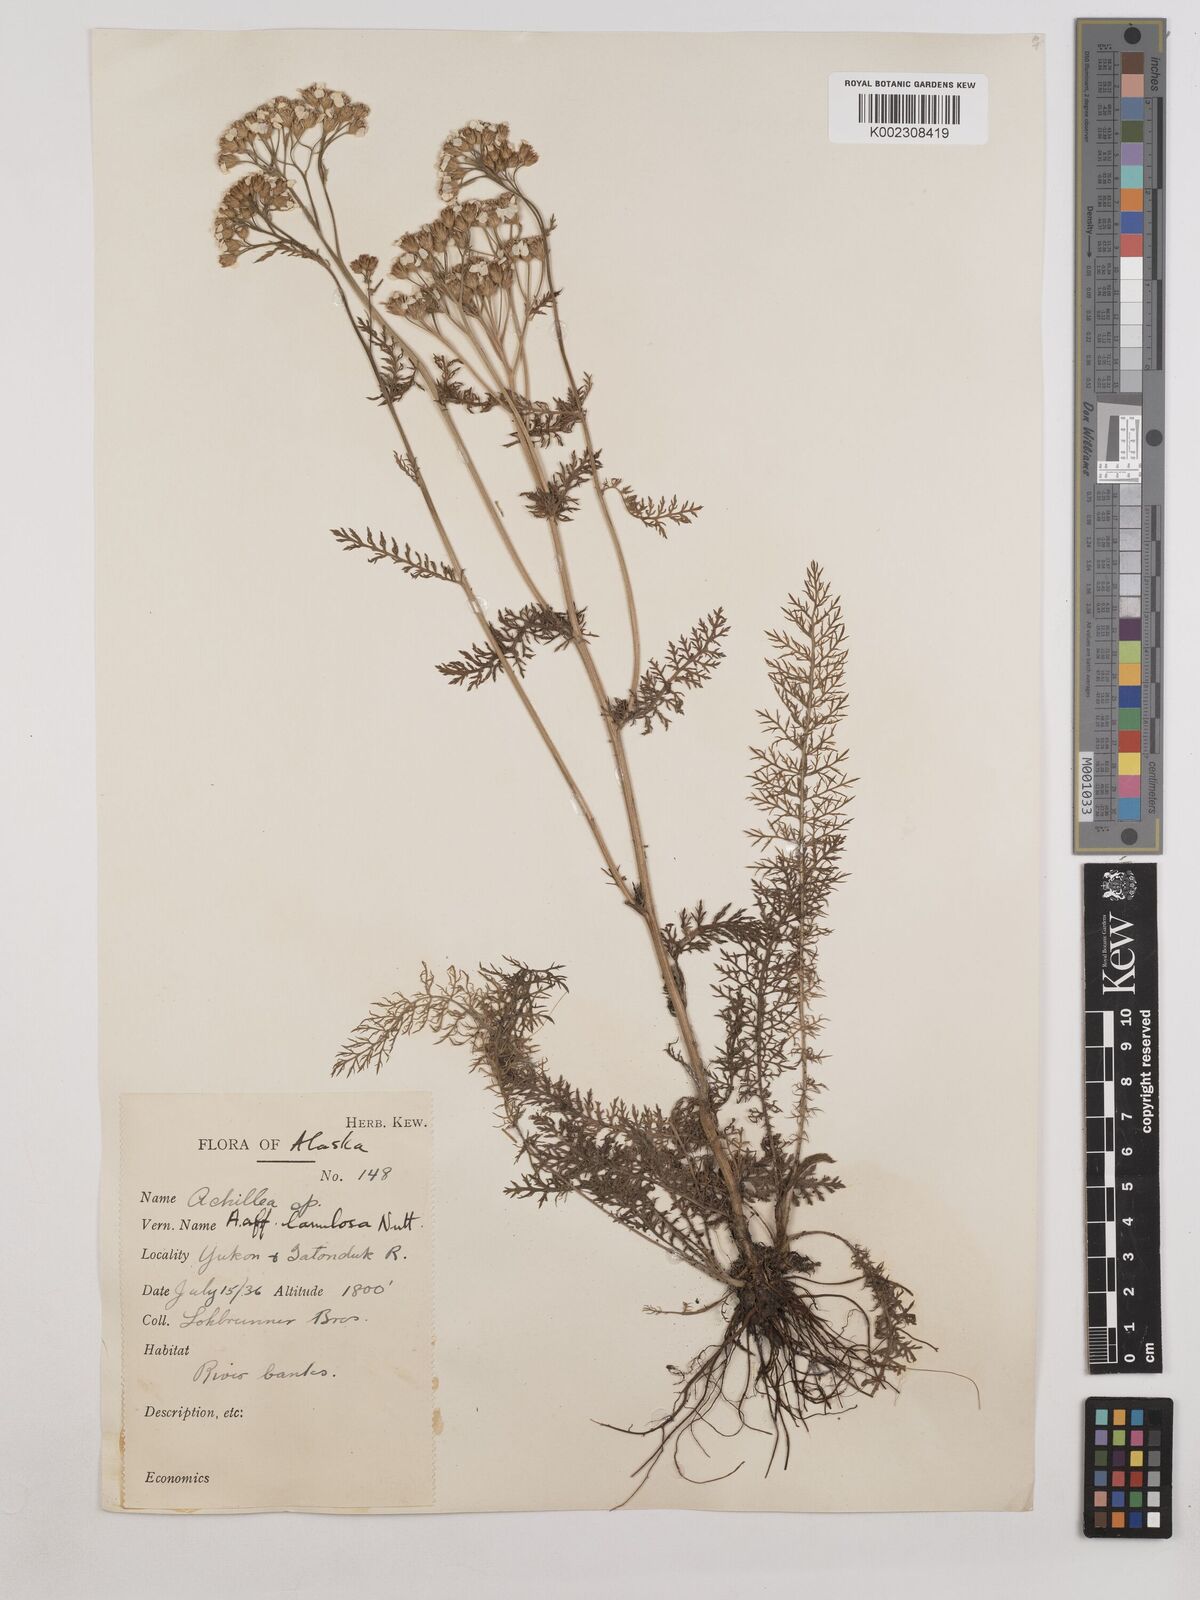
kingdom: Plantae
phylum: Tracheophyta
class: Magnoliopsida
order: Asterales
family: Asteraceae
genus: Achillea
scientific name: Achillea millefolium
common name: Yarrow
